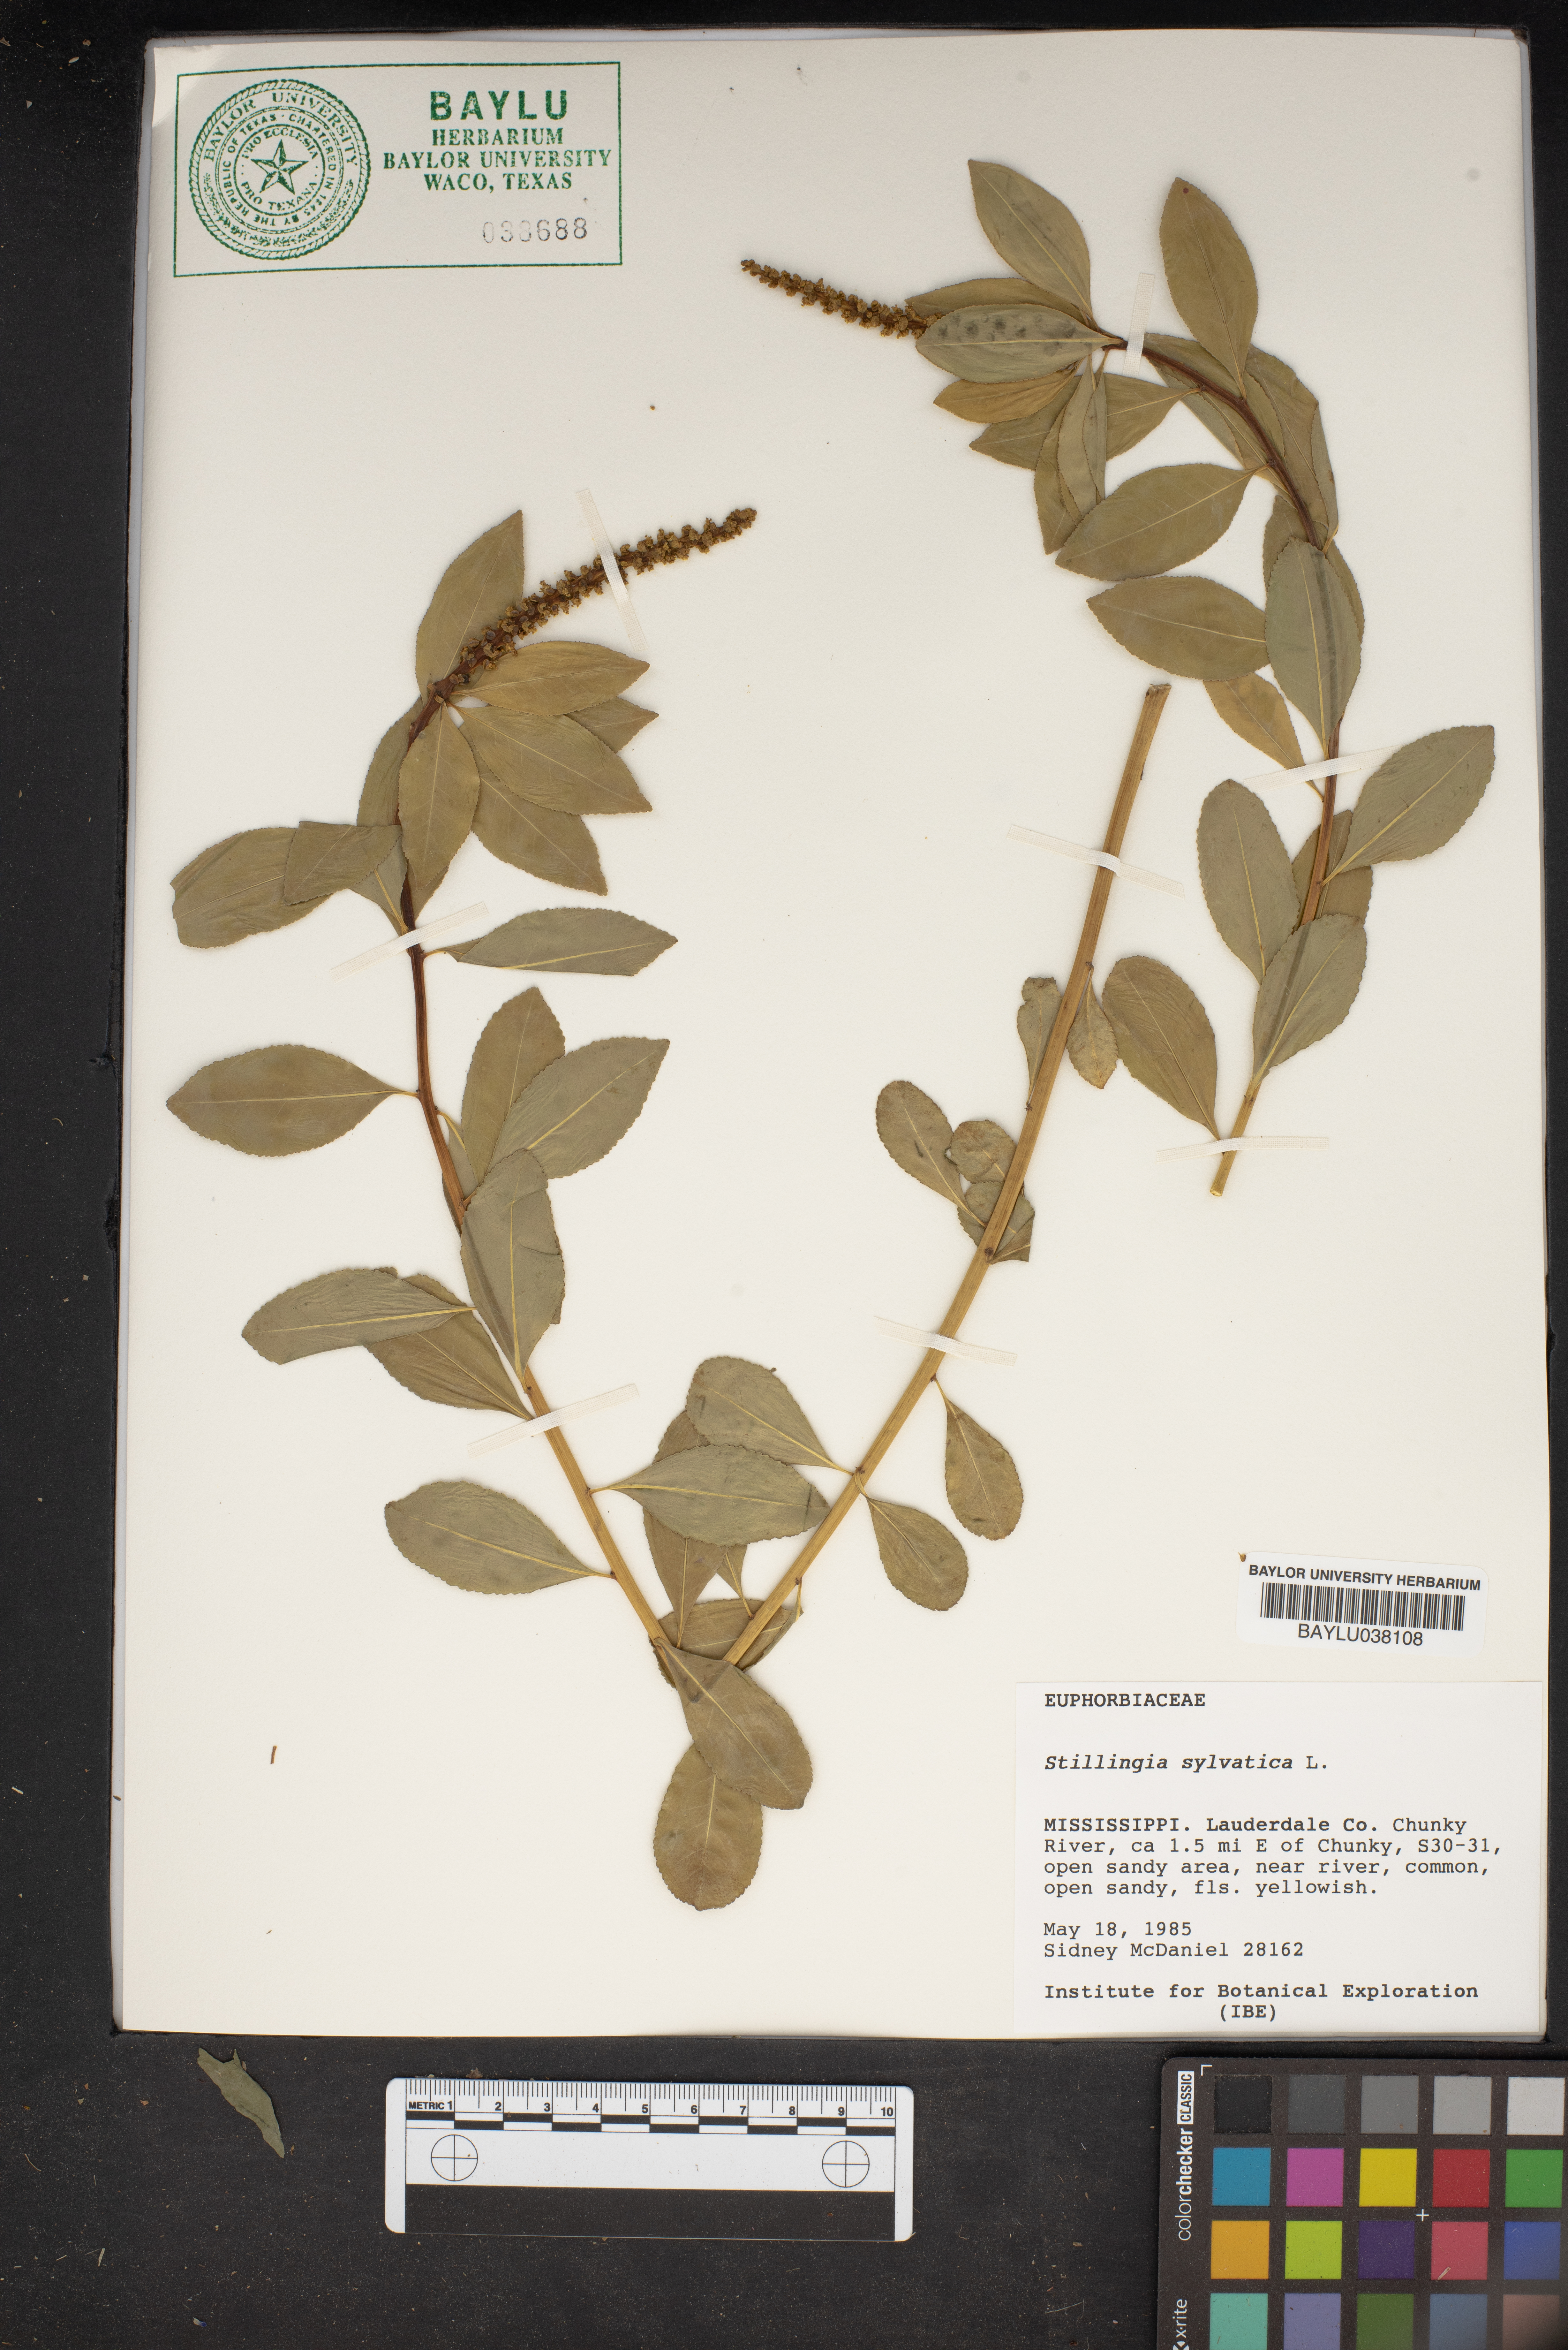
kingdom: Plantae
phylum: Tracheophyta
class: Magnoliopsida
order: Malpighiales
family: Euphorbiaceae
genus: Stillingia
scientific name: Stillingia sylvatica
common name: Queen's-delight
